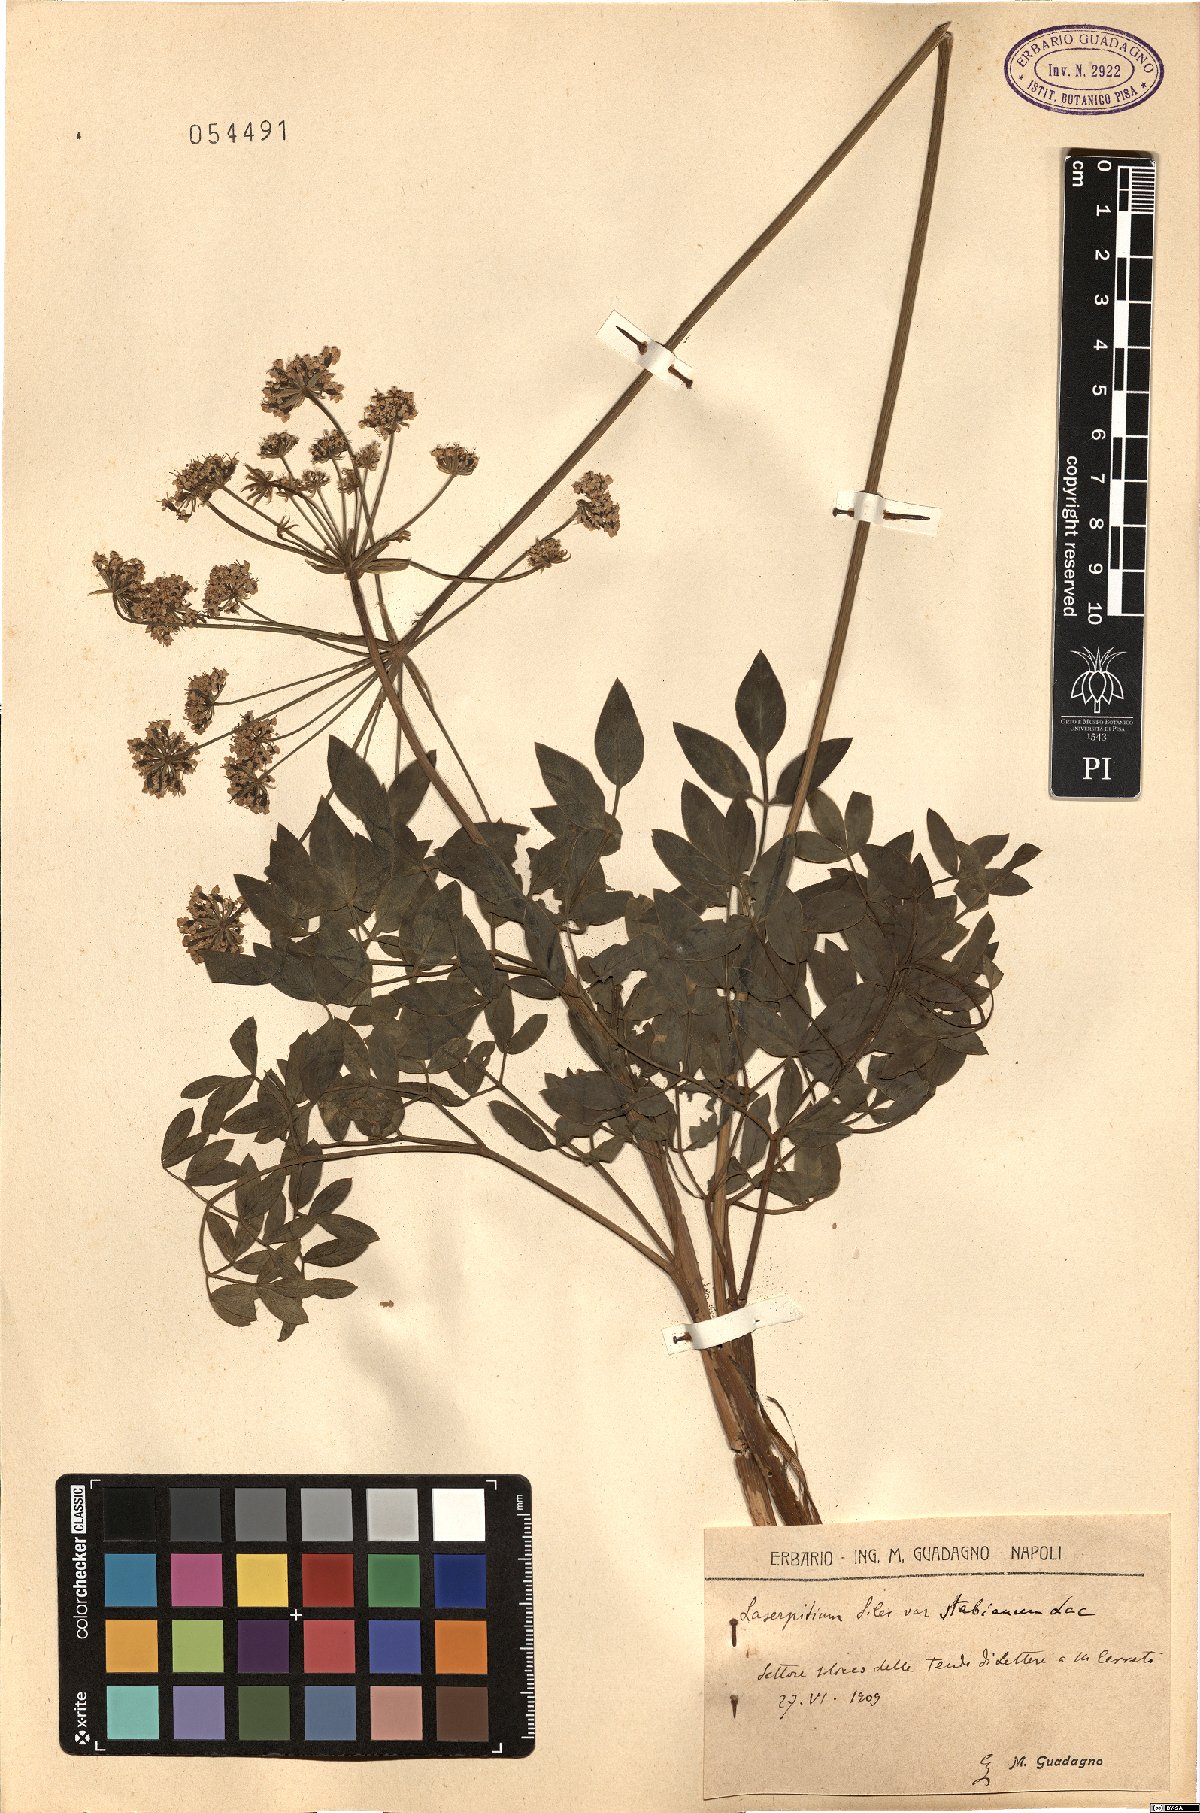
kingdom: Plantae
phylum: Tracheophyta
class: Magnoliopsida
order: Apiales
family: Apiaceae
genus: Siler
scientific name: Siler montanum
